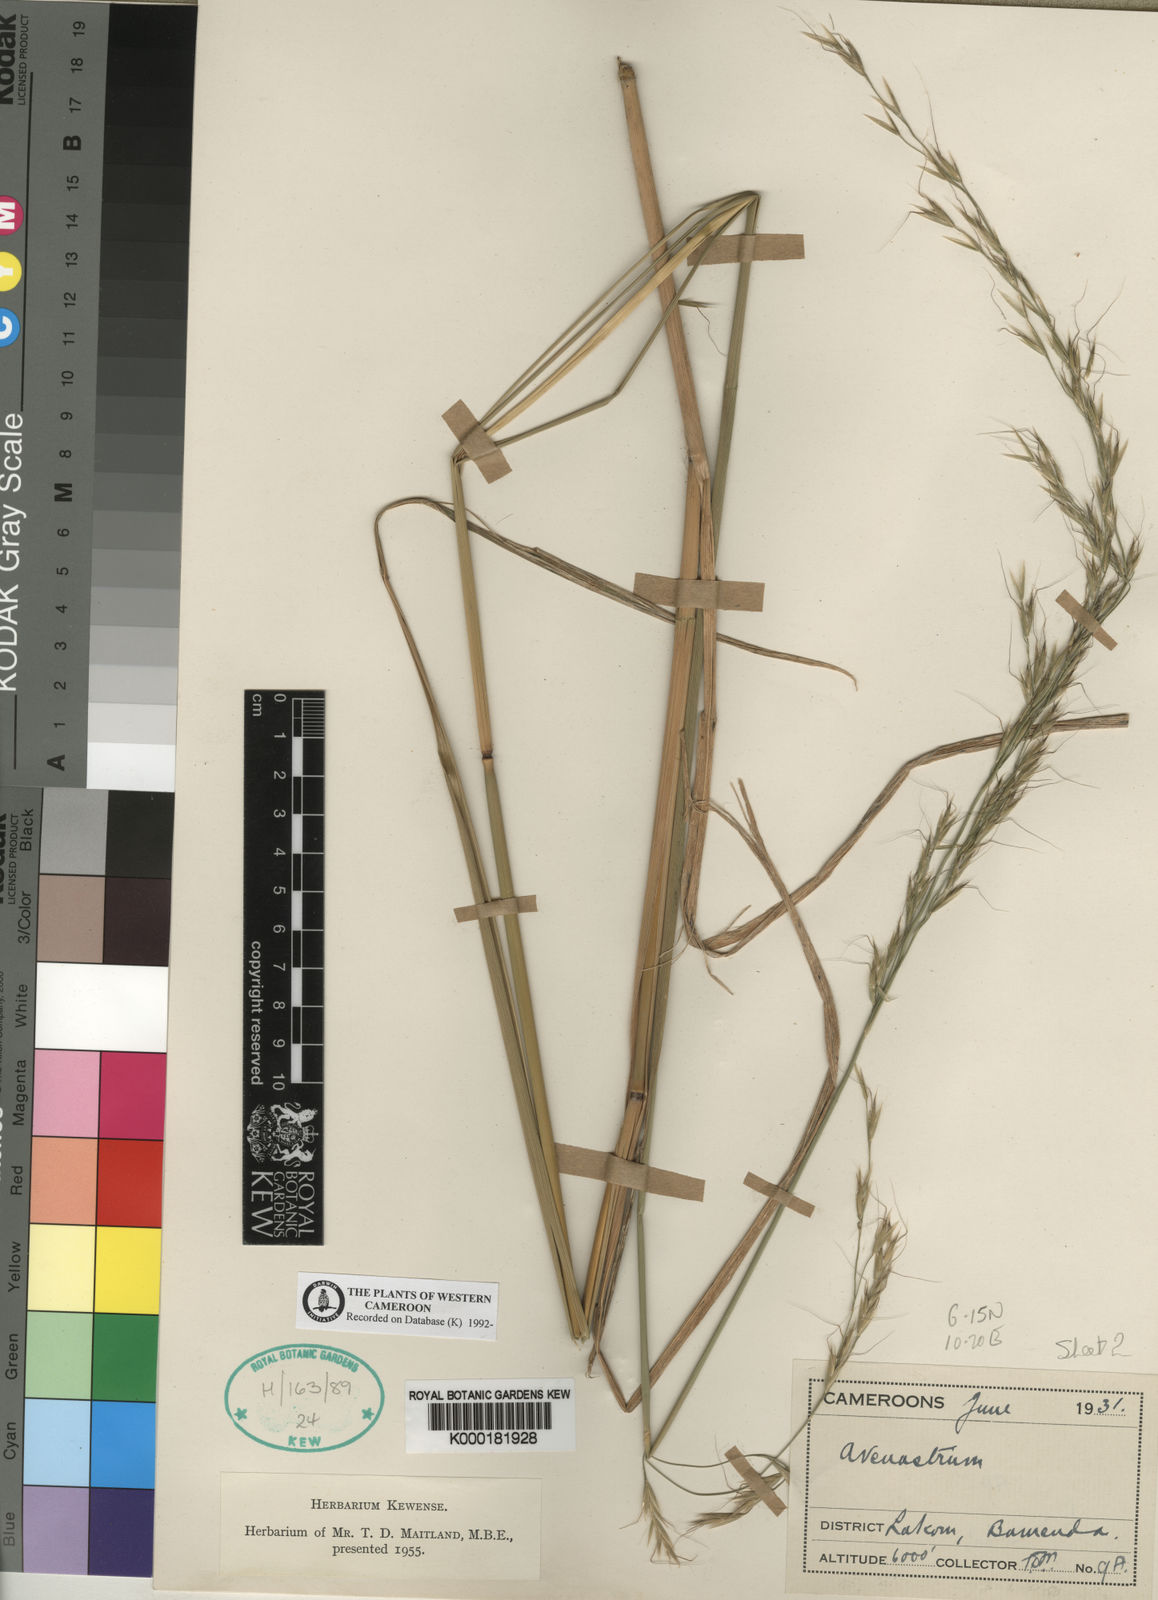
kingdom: Plantae
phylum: Tracheophyta
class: Liliopsida
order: Poales
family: Poaceae
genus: Trisetopsis
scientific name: Trisetopsis elongata
